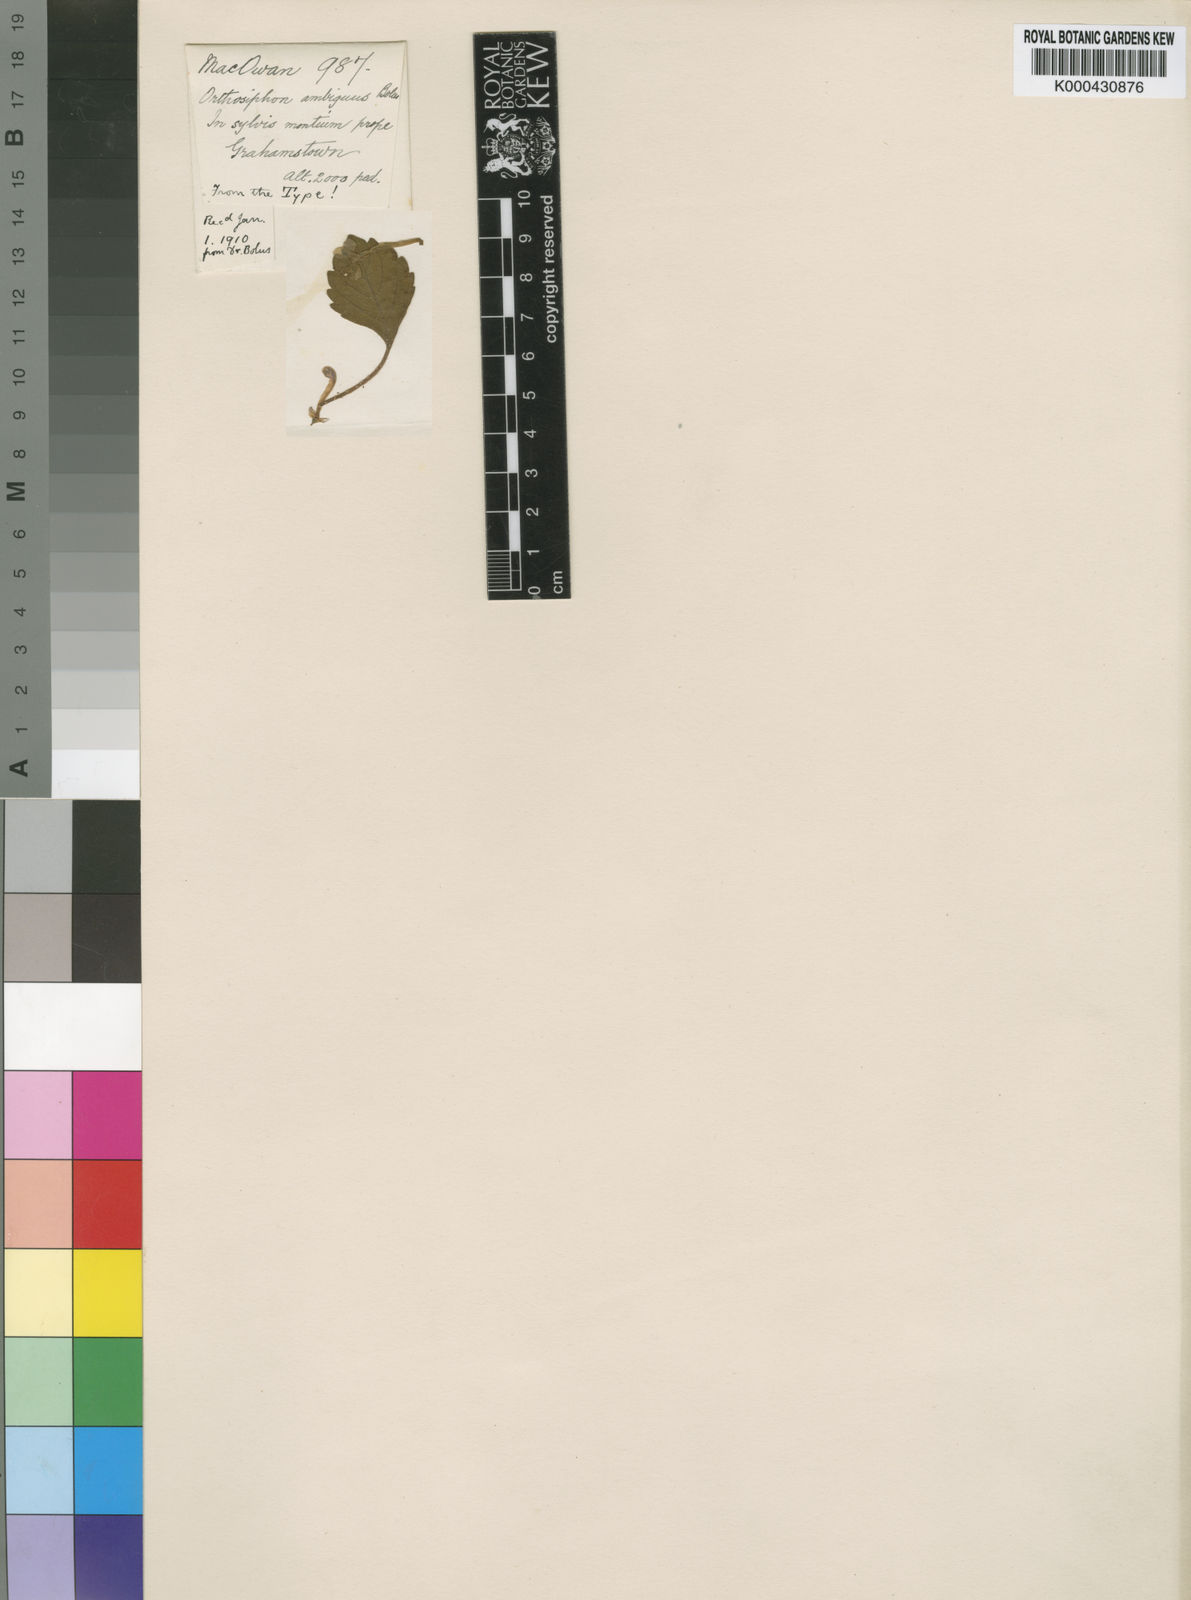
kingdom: Plantae
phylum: Tracheophyta
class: Magnoliopsida
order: Lamiales
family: Lamiaceae
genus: Plectranthus
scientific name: Plectranthus ambiguus
